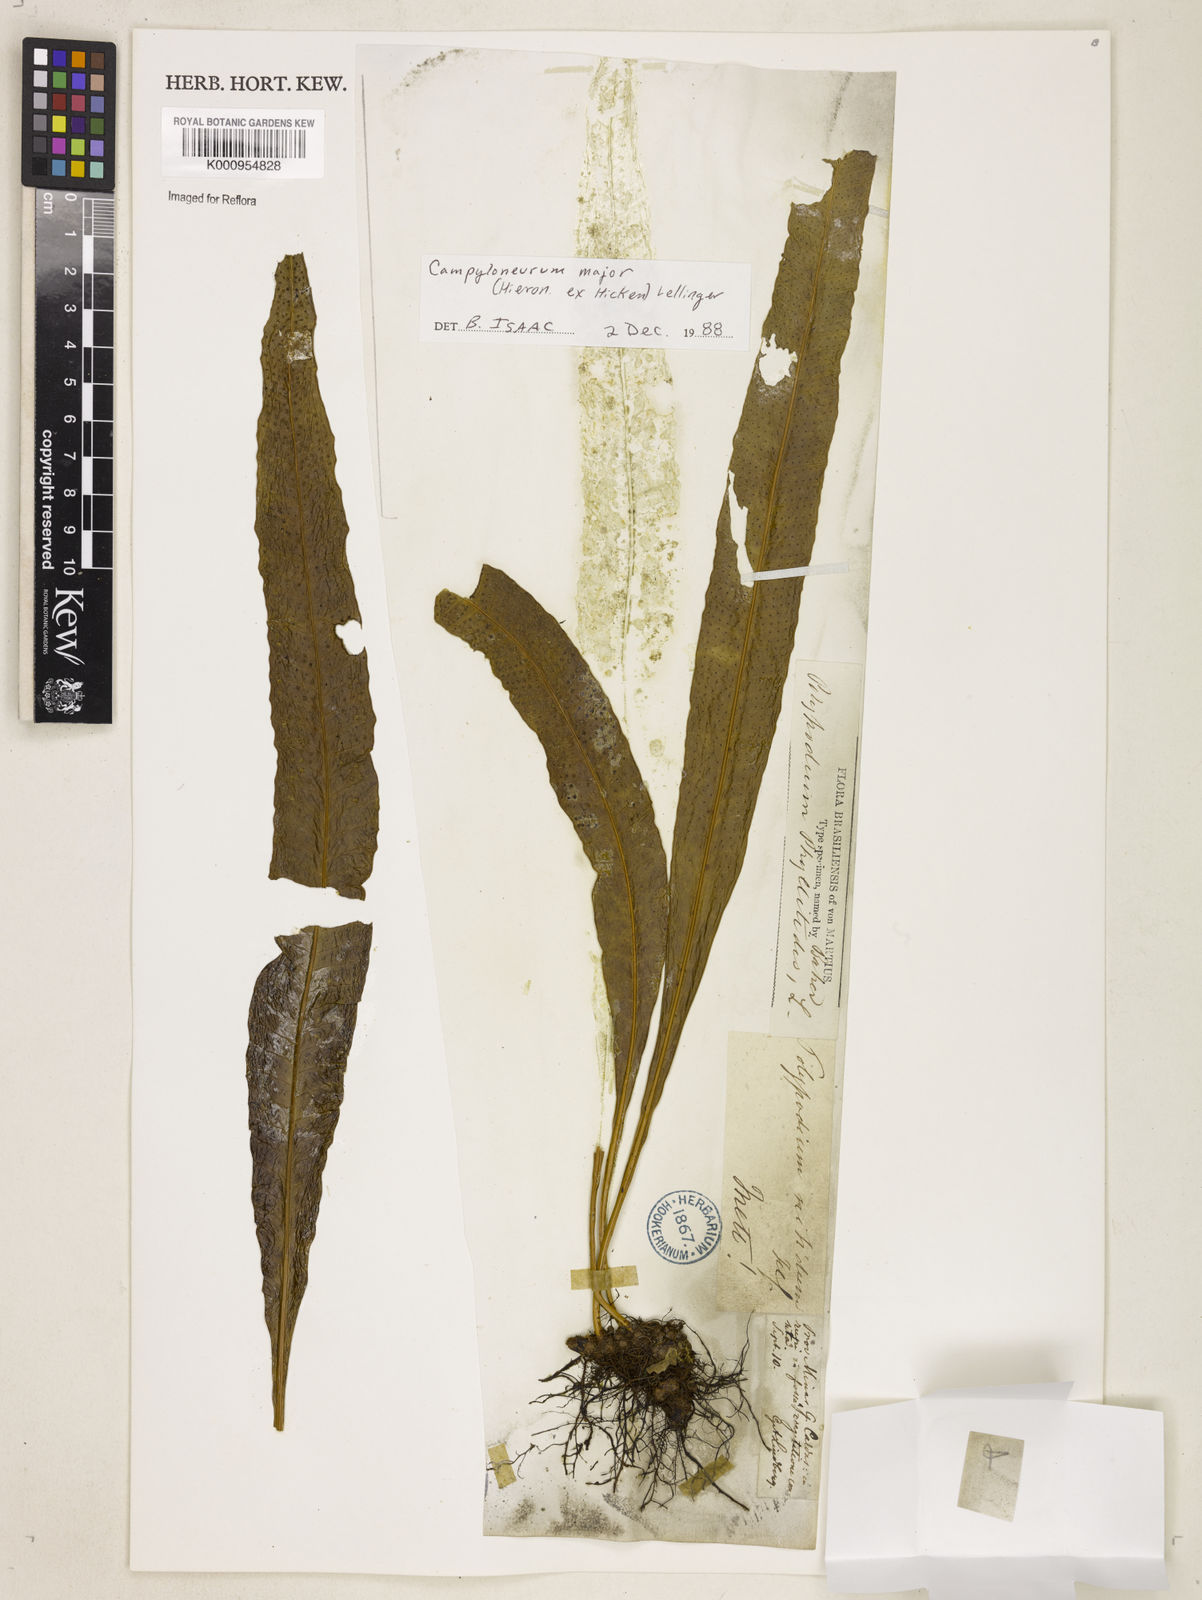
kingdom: Plantae
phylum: Tracheophyta
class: Polypodiopsida
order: Polypodiales
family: Polypodiaceae
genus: Campyloneurum
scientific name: Campyloneurum majus
